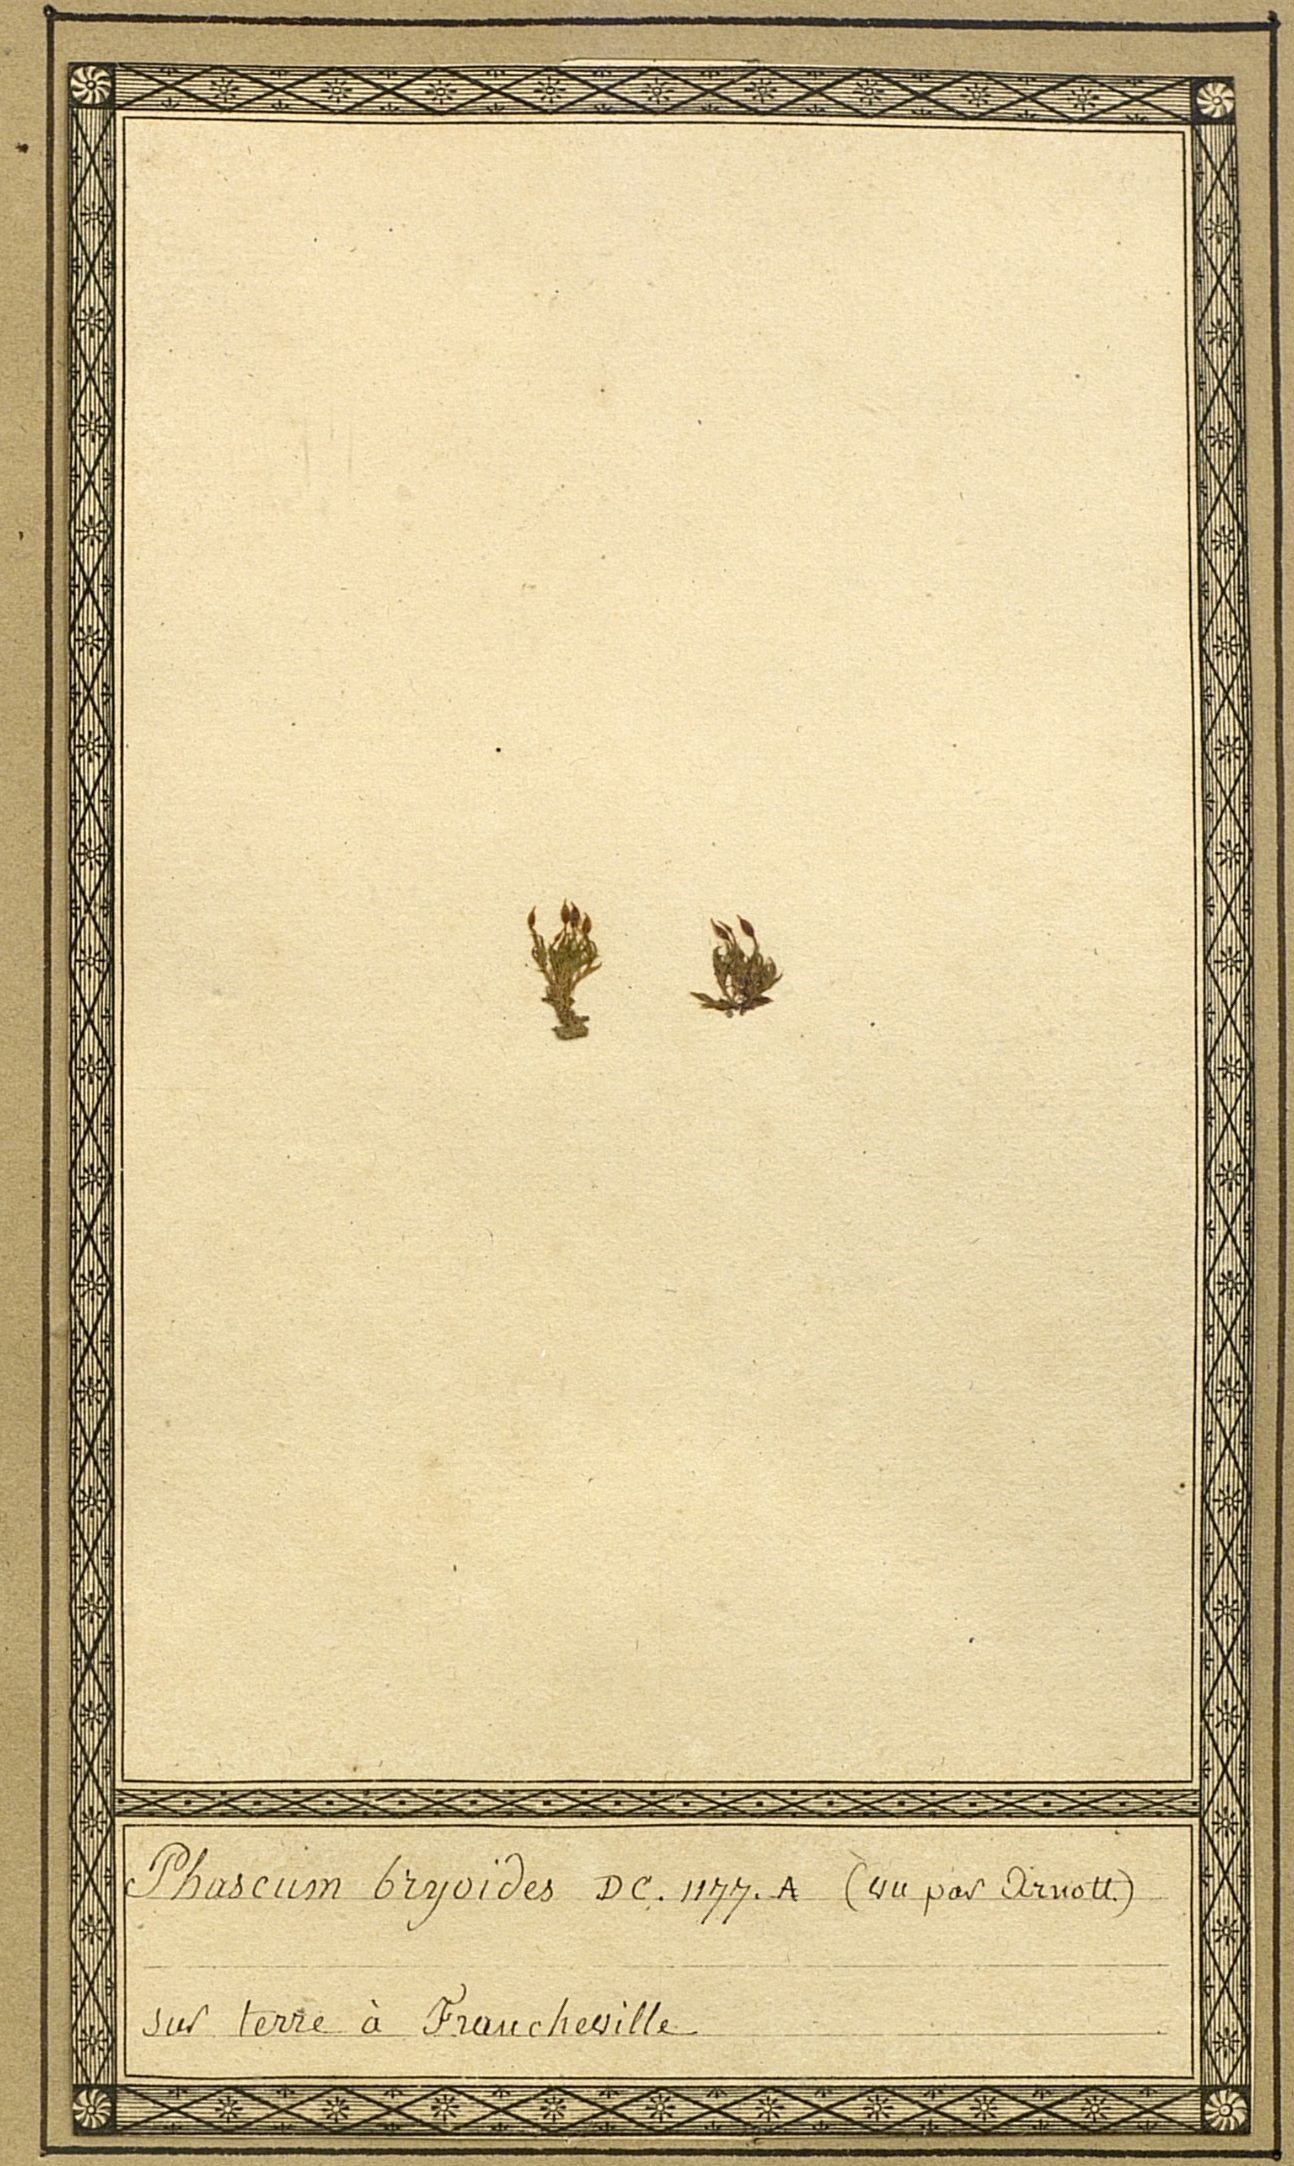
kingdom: Plantae
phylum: Bryophyta
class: Bryopsida
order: Pottiales
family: Pottiaceae
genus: Tortula
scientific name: Tortula protobryoides
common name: Tall pottia
